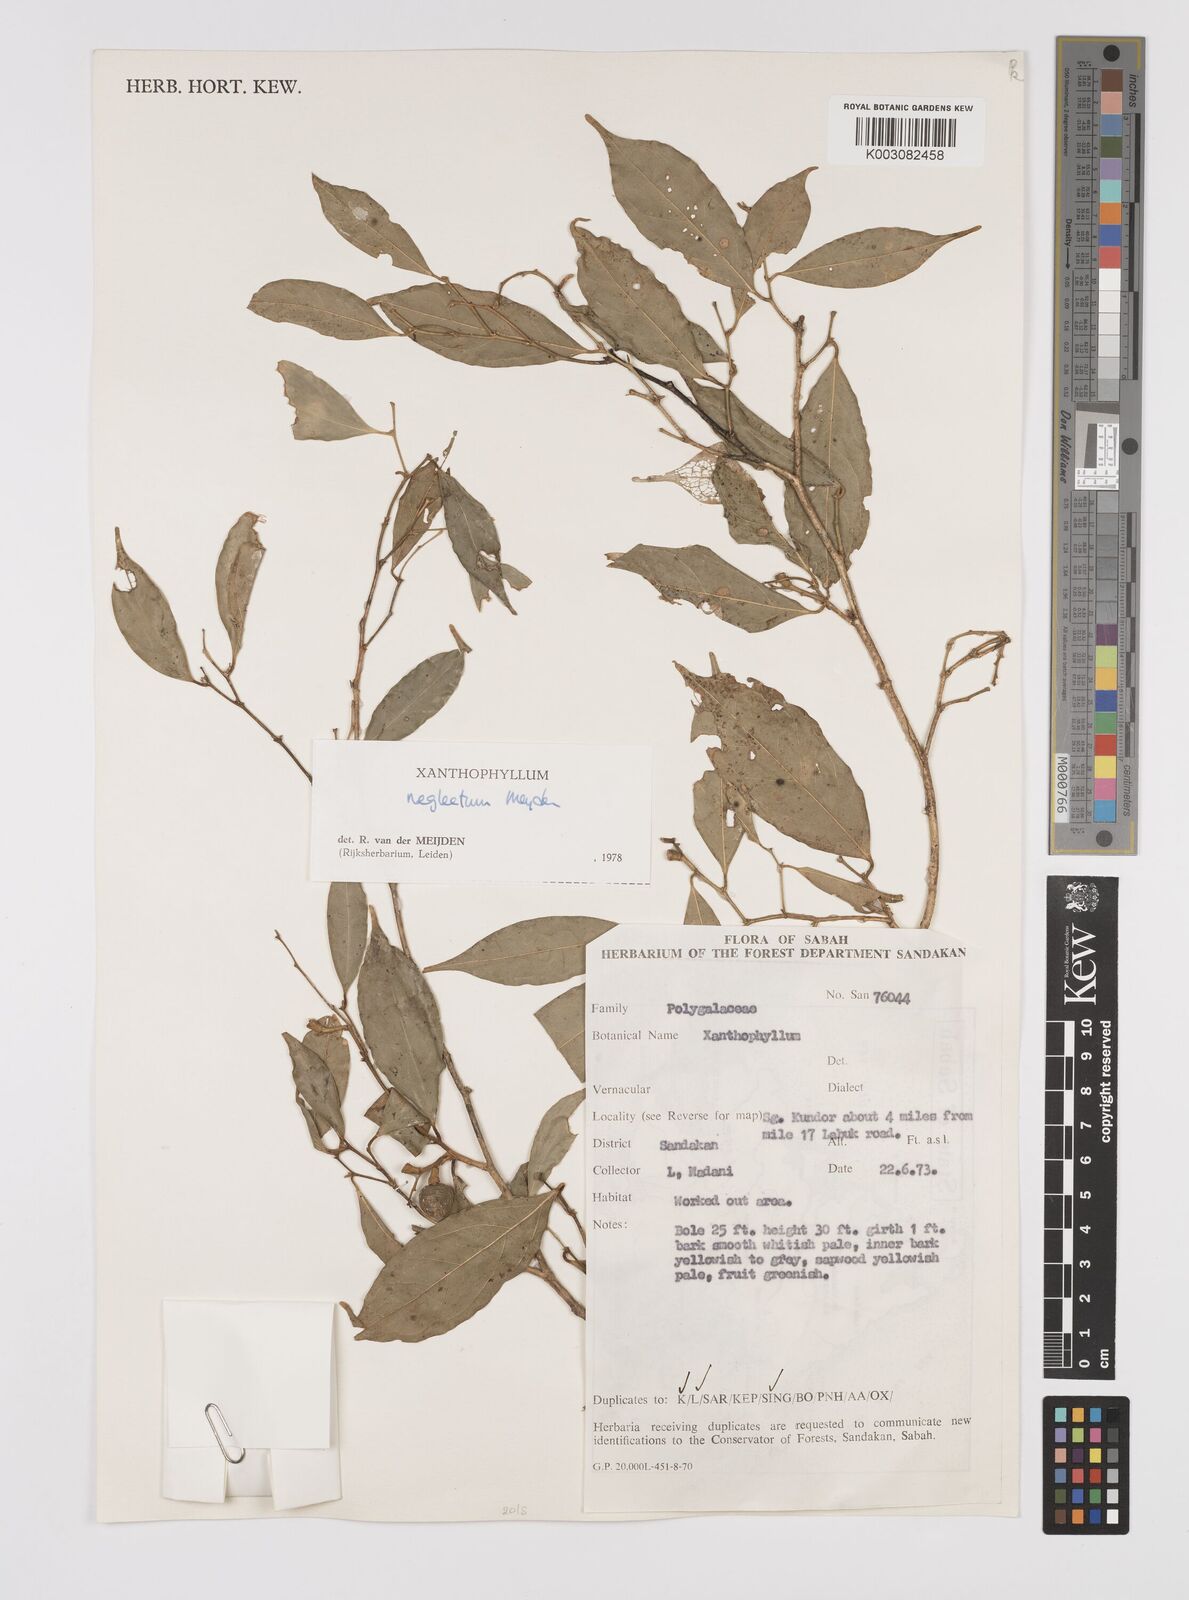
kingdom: Plantae
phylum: Tracheophyta
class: Magnoliopsida
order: Fabales
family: Polygalaceae
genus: Xanthophyllum
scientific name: Xanthophyllum neglectum
